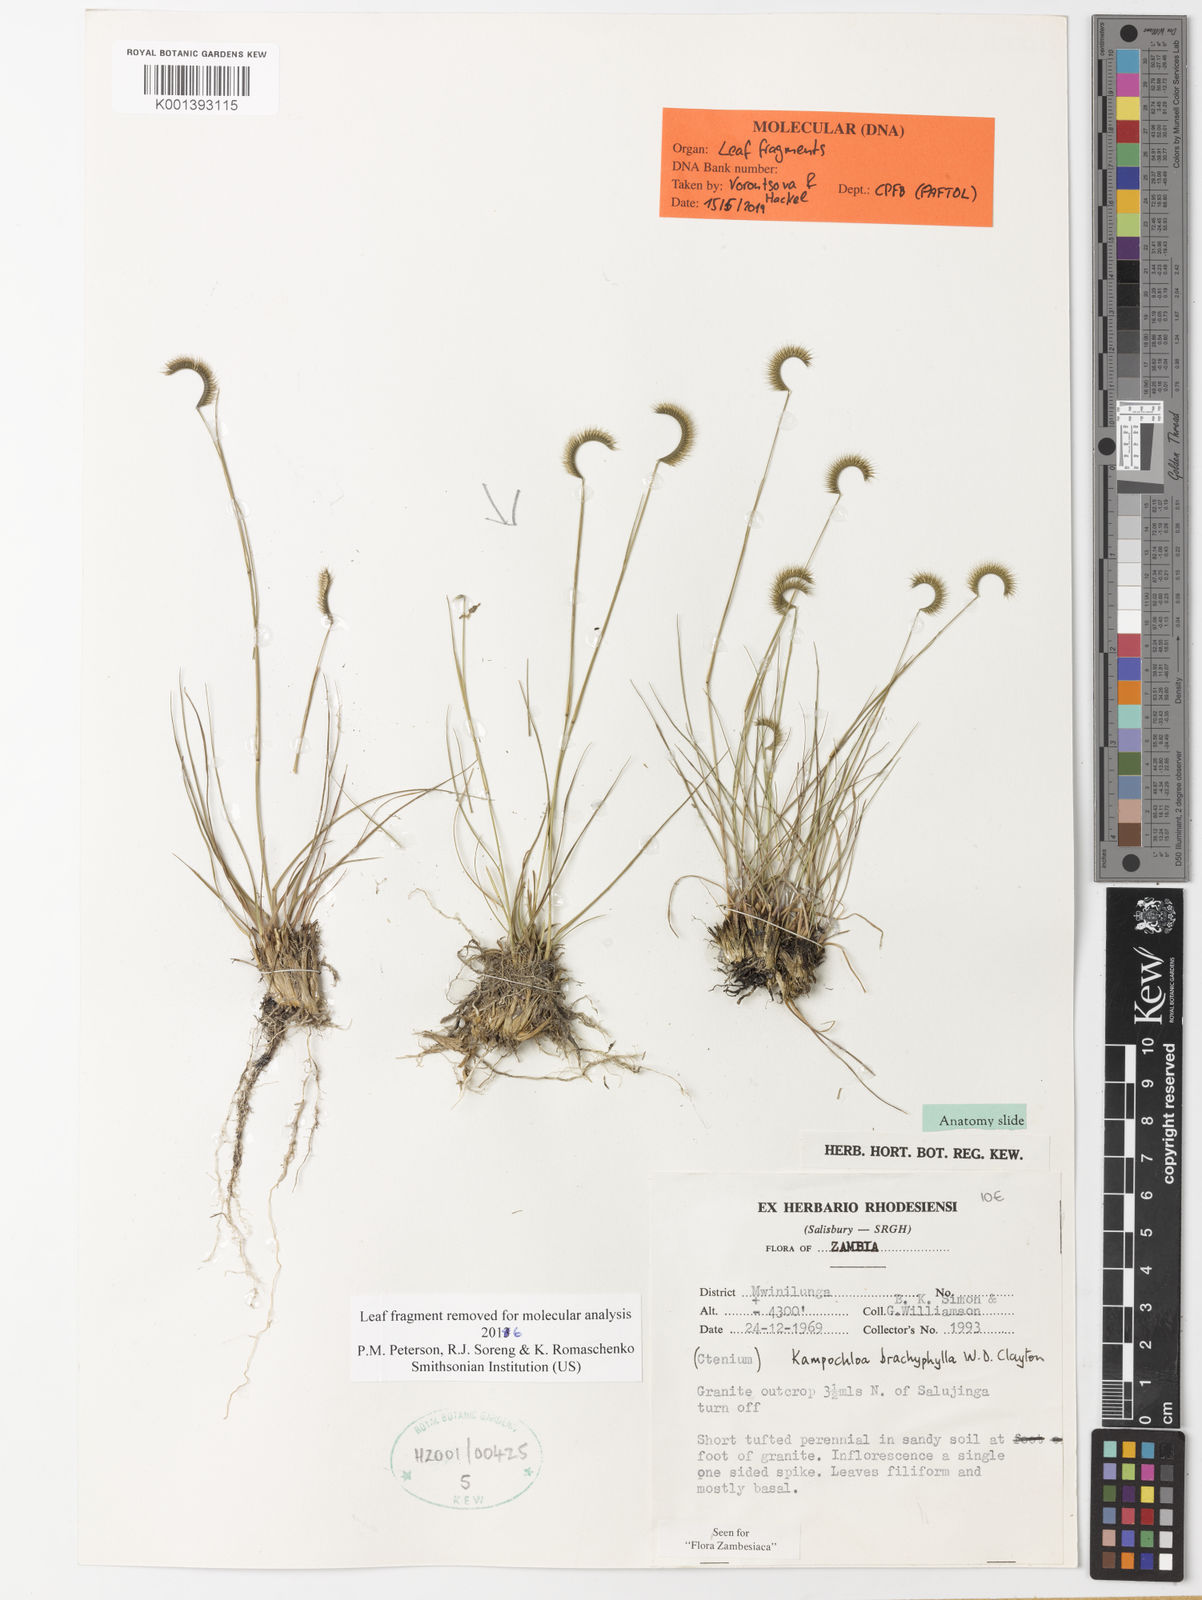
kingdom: Plantae
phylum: Tracheophyta
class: Liliopsida
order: Poales
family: Poaceae
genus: Kampochloa
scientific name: Kampochloa brachyphylla
